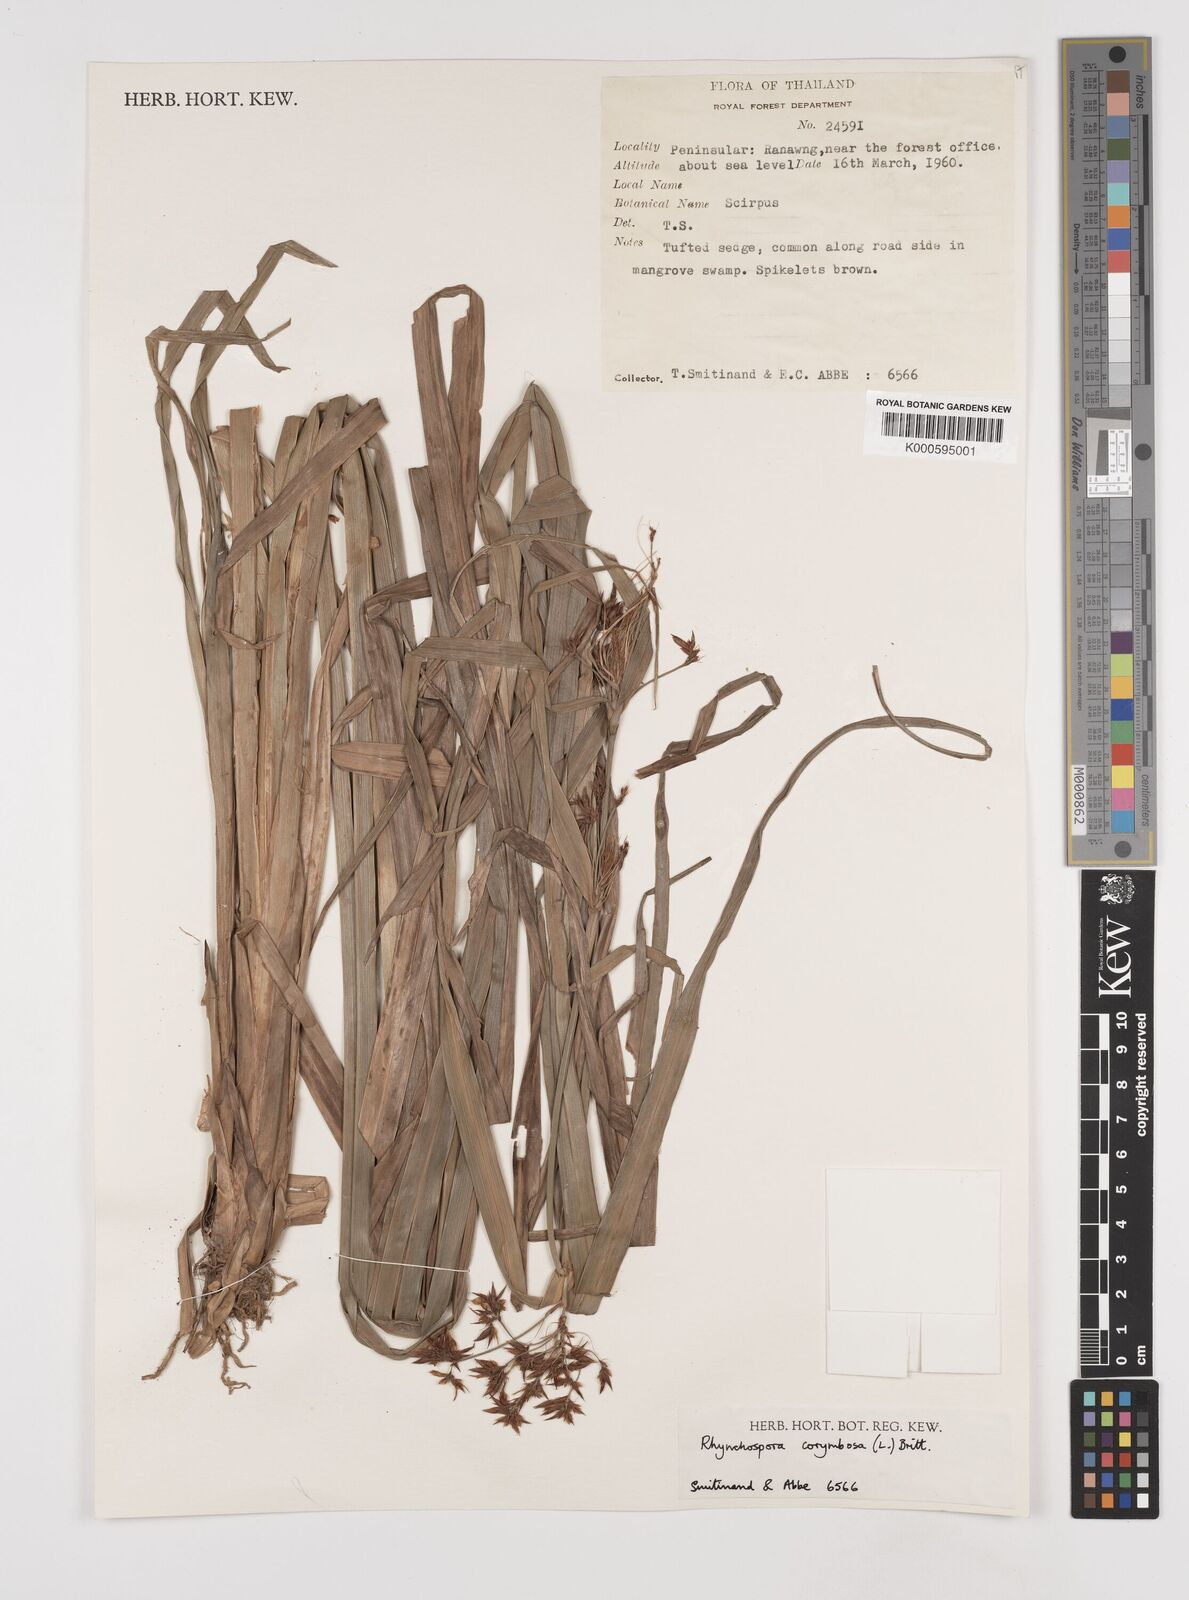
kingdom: Plantae
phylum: Tracheophyta
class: Liliopsida
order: Poales
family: Cyperaceae
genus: Rhynchospora
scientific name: Rhynchospora corymbosa
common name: Golden beak sedge
